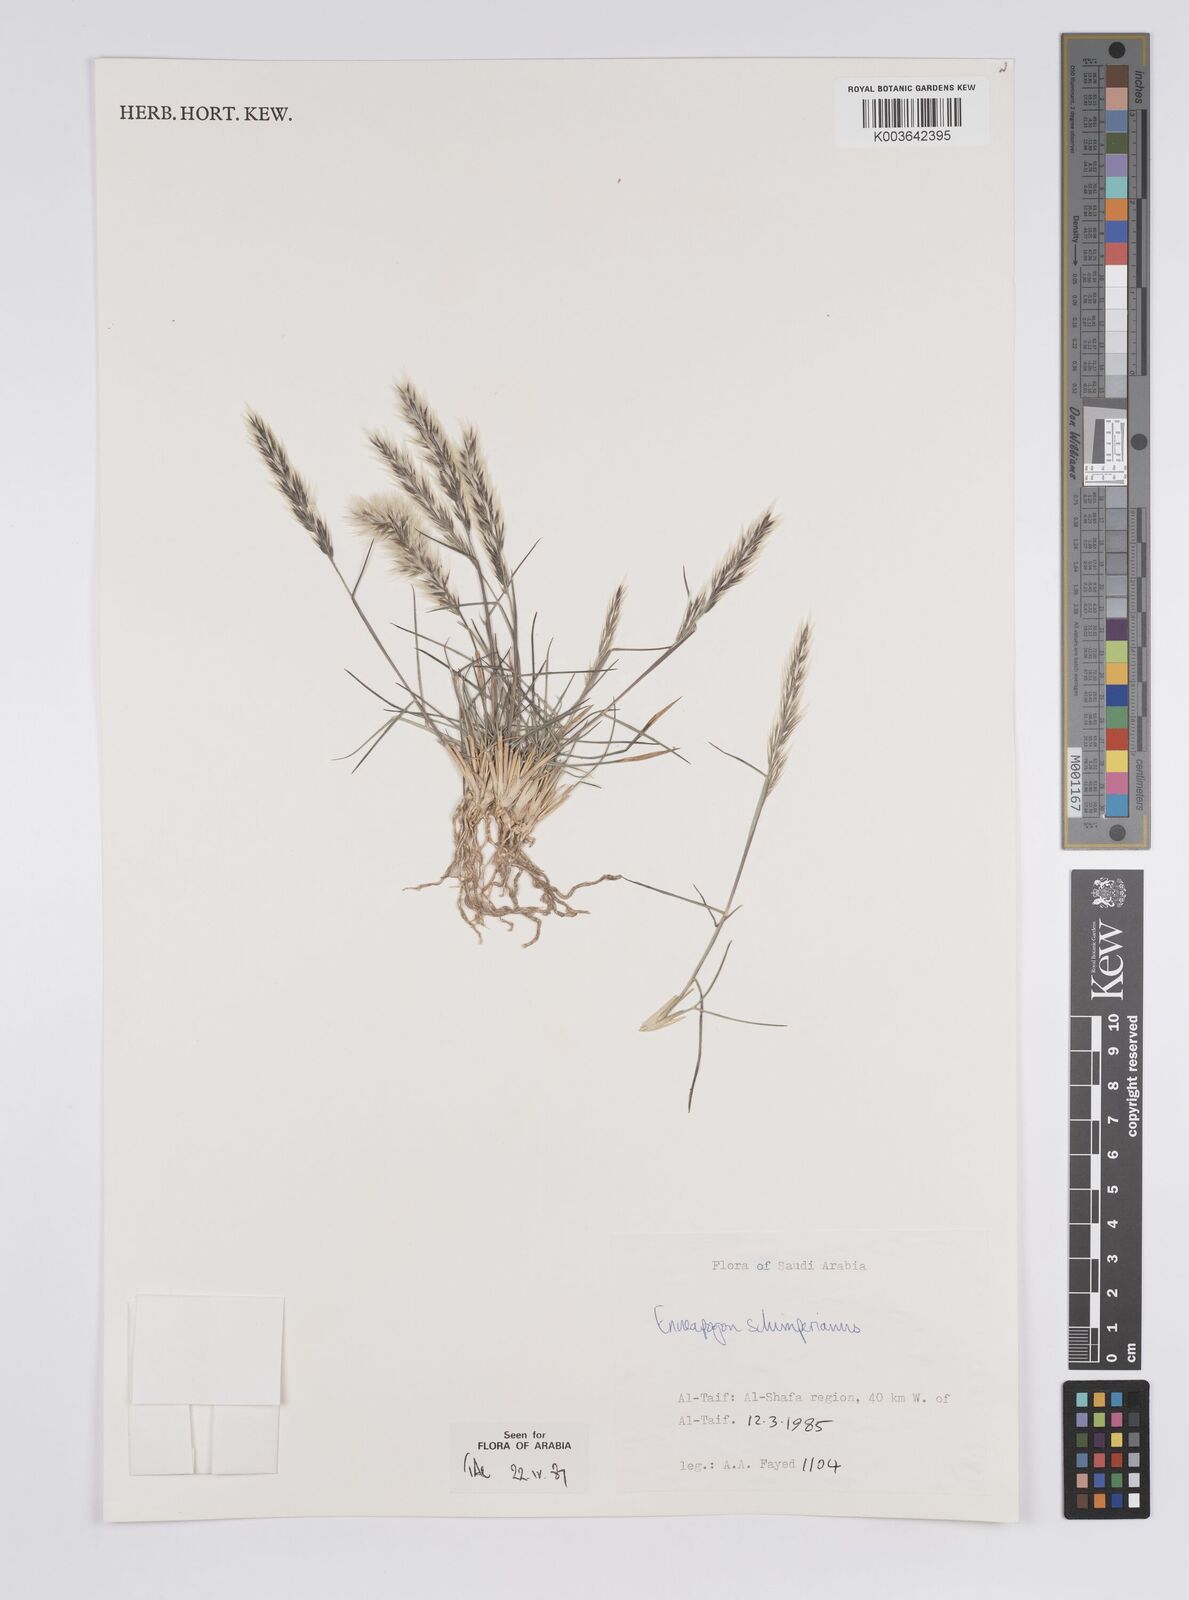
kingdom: Plantae
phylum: Tracheophyta
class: Liliopsida
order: Poales
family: Poaceae
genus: Enneapogon
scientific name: Enneapogon persicus
